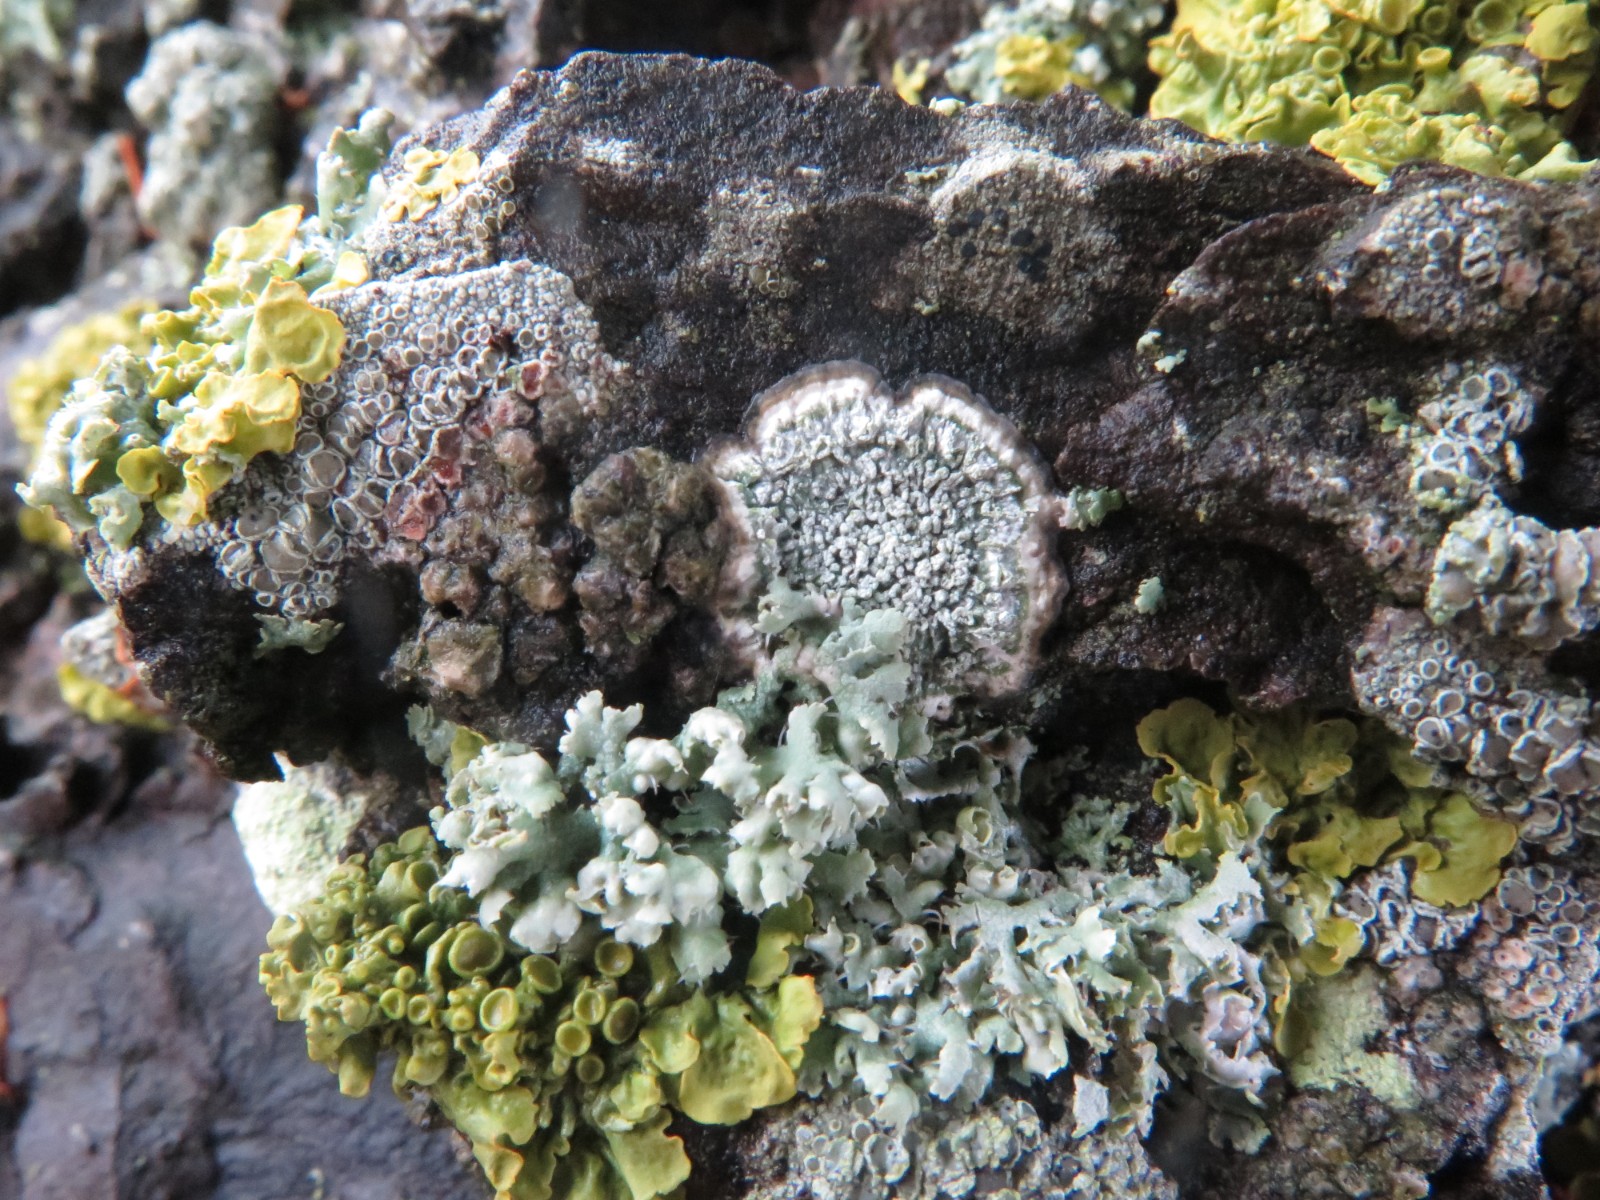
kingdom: Fungi
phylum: Ascomycota
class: Lecanoromycetes
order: Pertusariales
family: Pertusariaceae
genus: Lepra
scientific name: Lepra albescens
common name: hvidmelet prikvortelav
